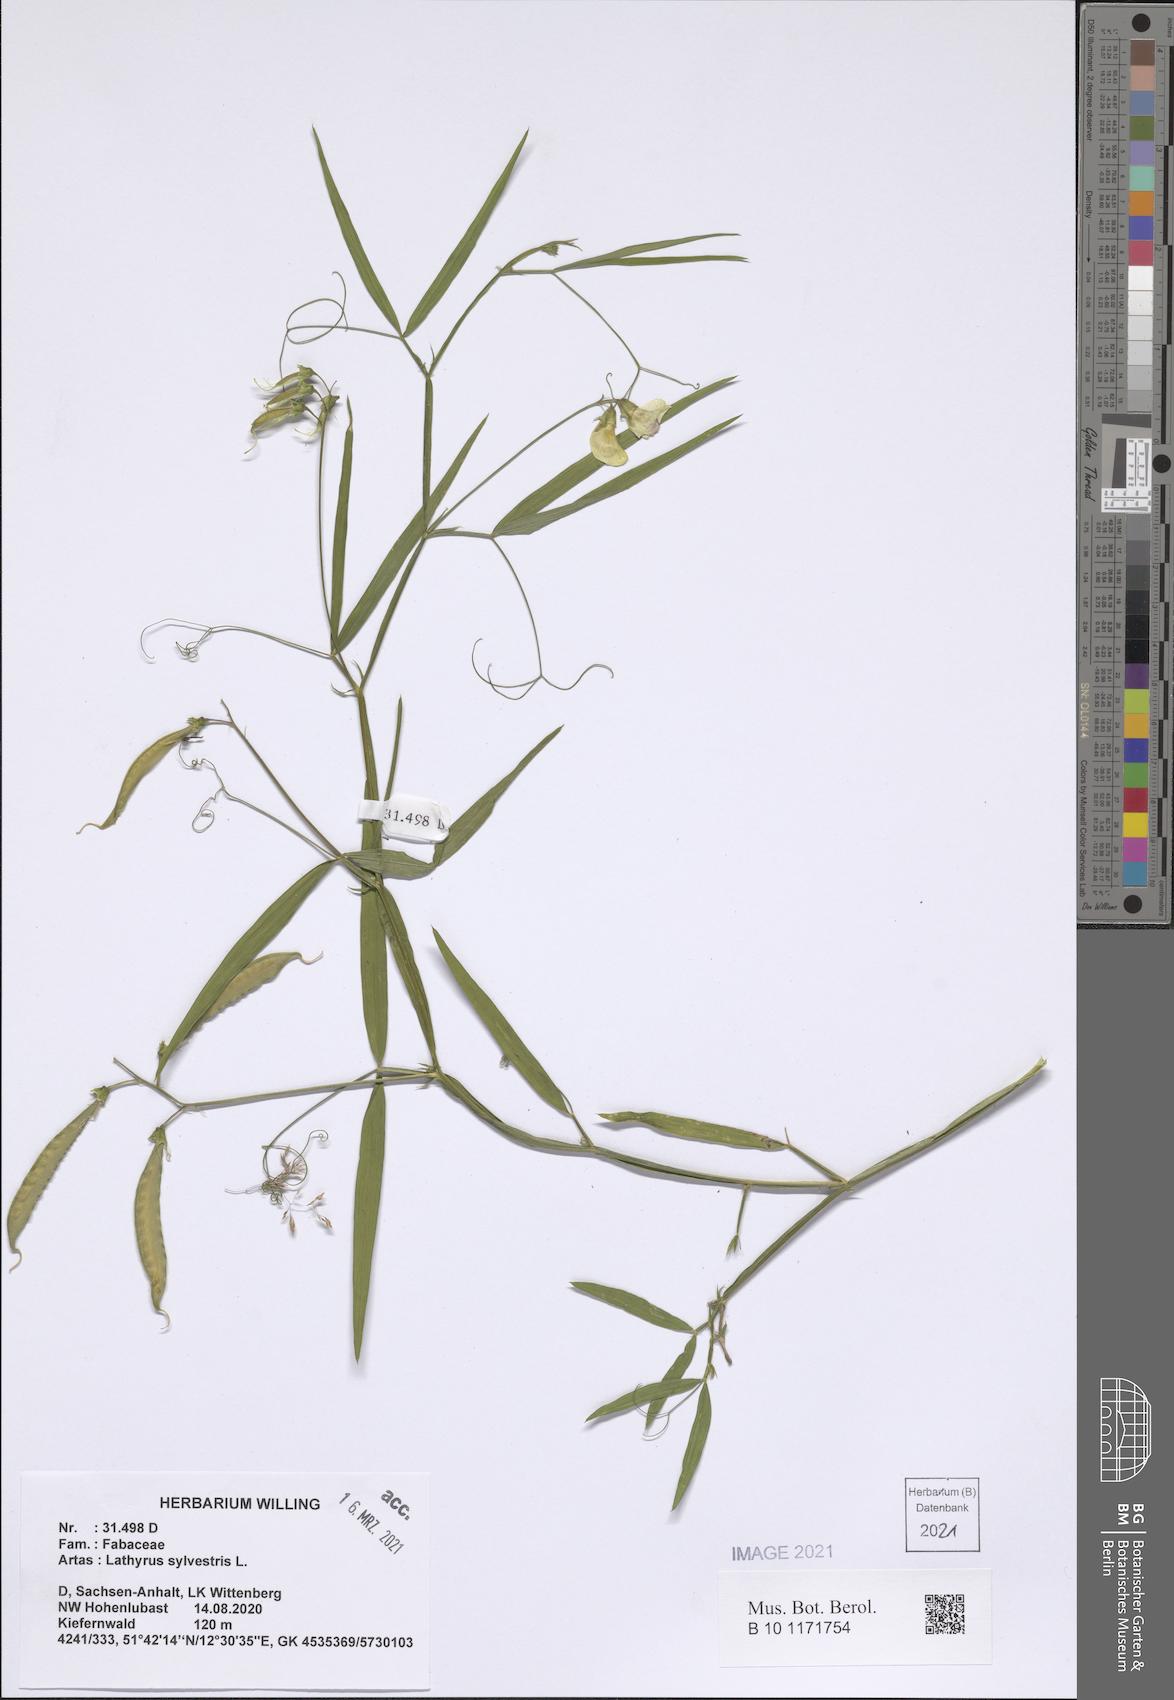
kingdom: Plantae
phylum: Tracheophyta
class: Magnoliopsida
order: Fabales
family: Fabaceae
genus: Lathyrus
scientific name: Lathyrus sylvestris
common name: Flat pea
